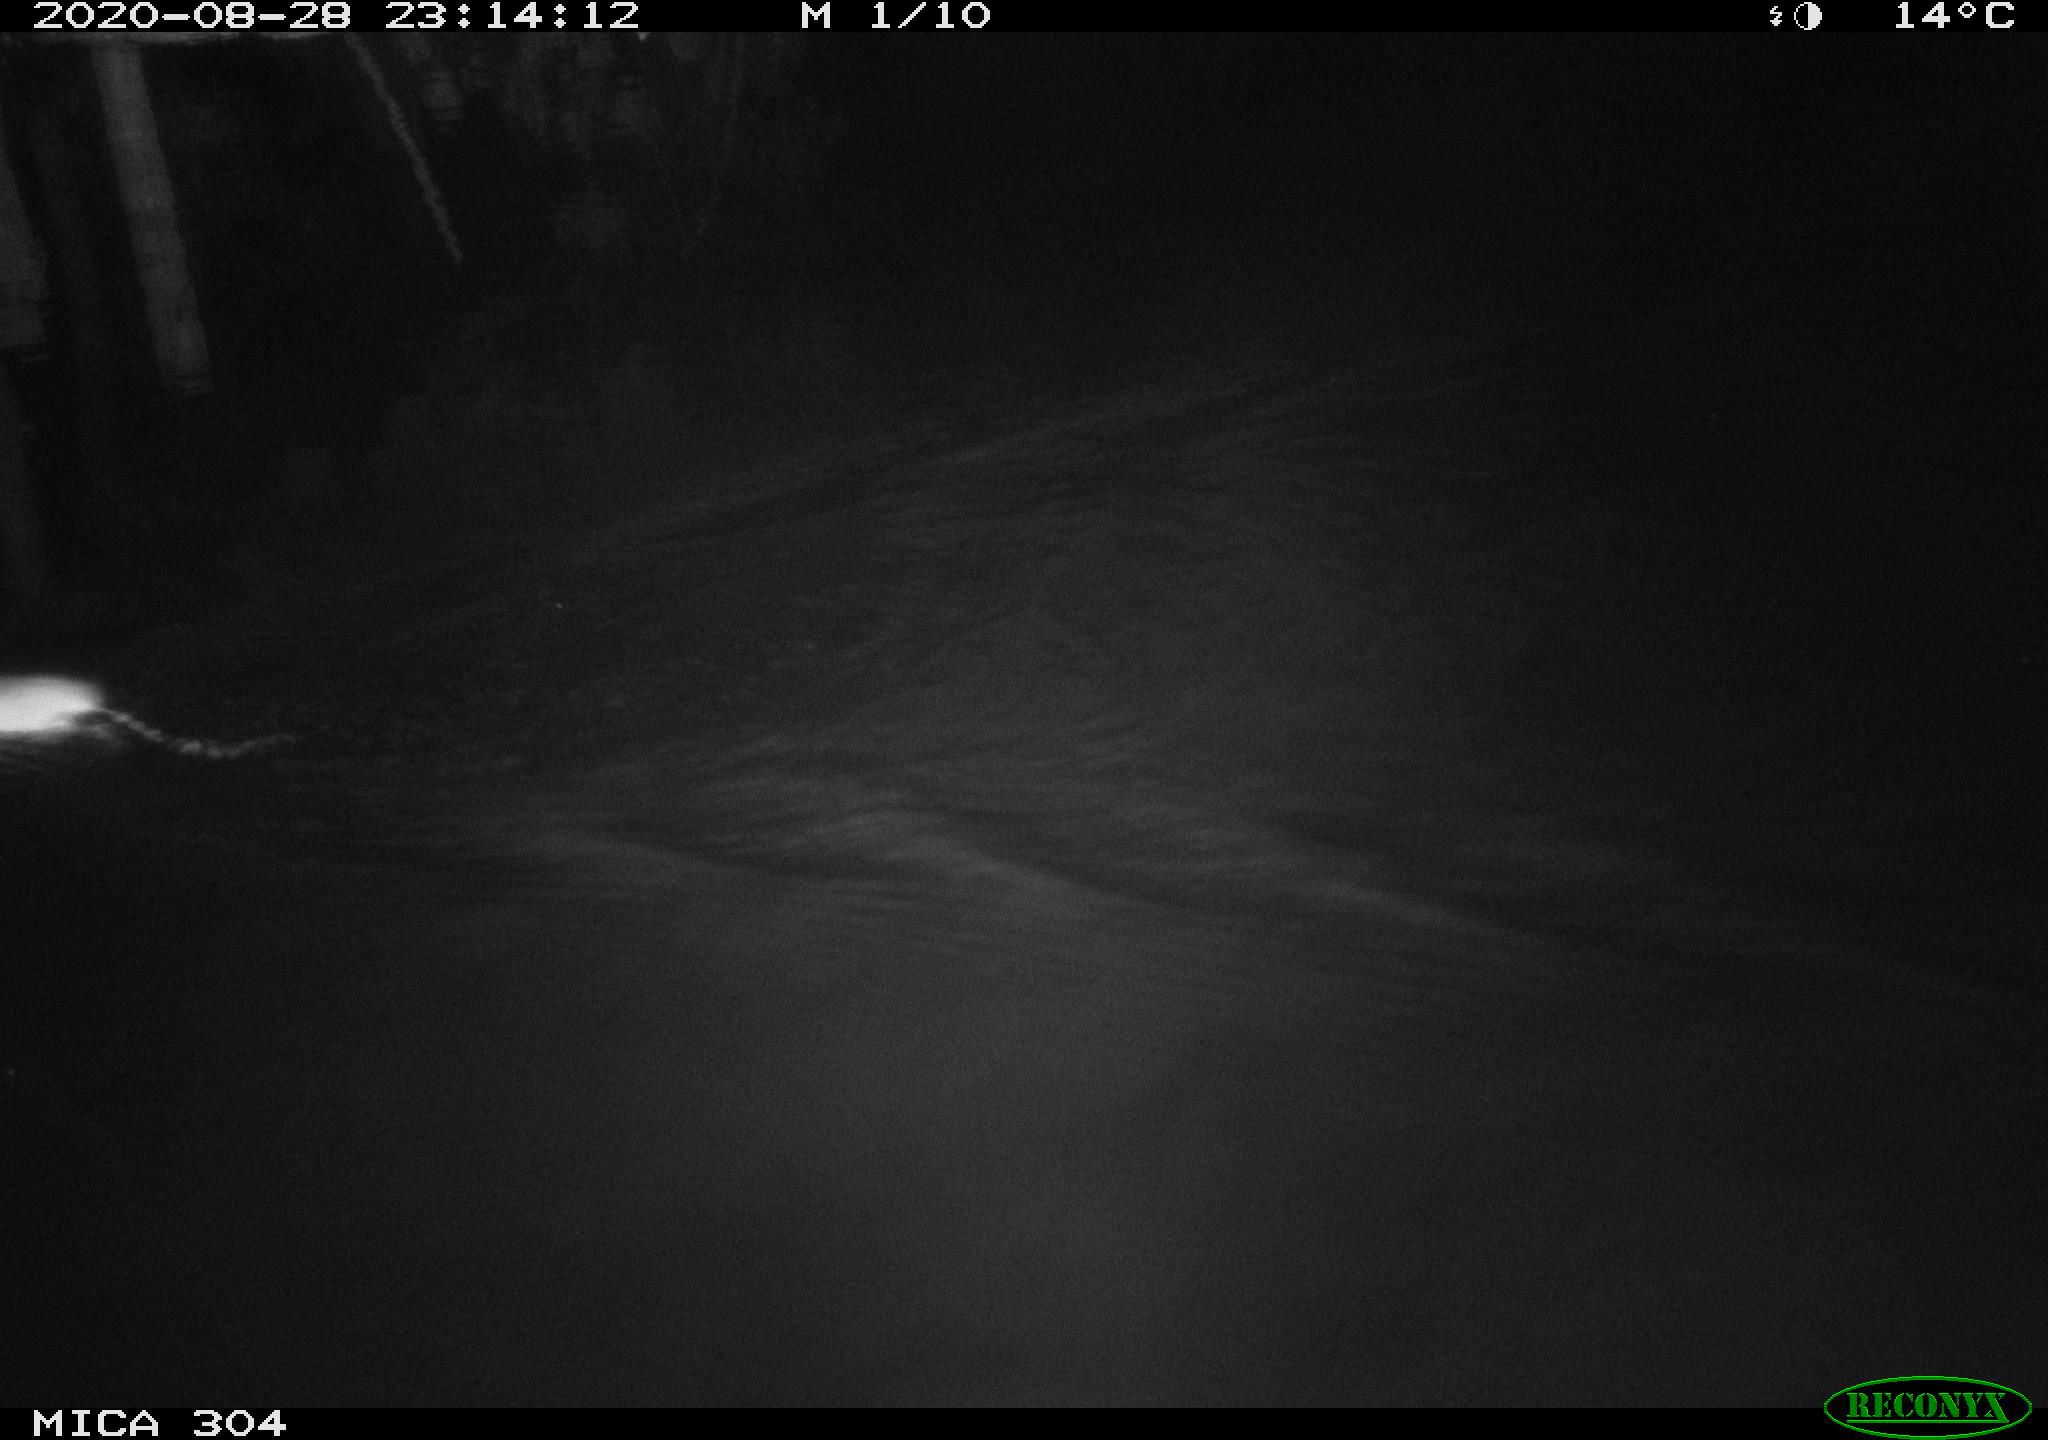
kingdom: Animalia
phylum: Chordata
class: Mammalia
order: Rodentia
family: Cricetidae
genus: Ondatra
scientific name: Ondatra zibethicus
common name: Muskrat
